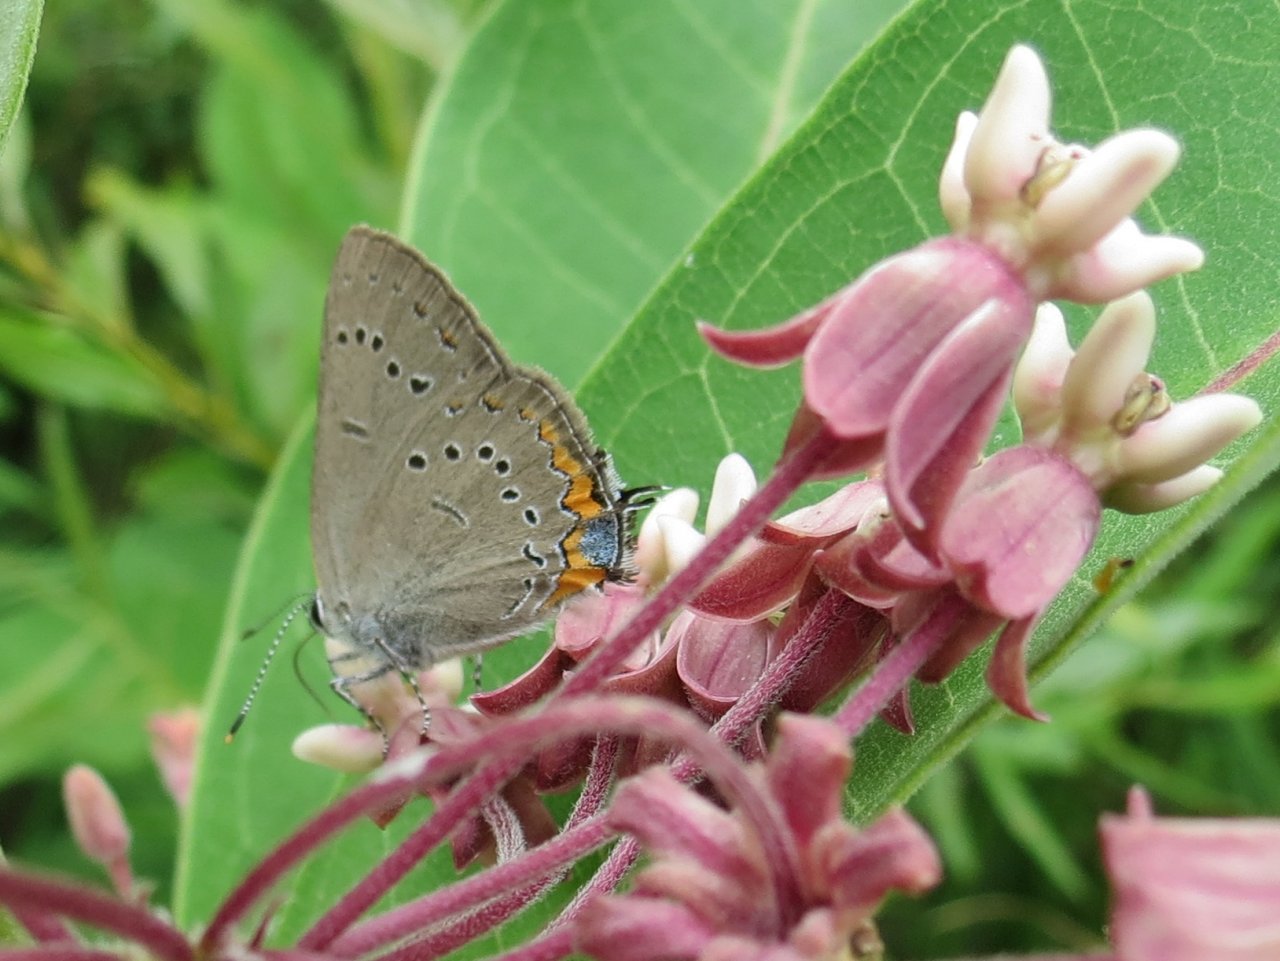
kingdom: Animalia
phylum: Arthropoda
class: Insecta
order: Lepidoptera
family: Lycaenidae
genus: Strymon
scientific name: Strymon acadica
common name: Acadian Hairstreak
